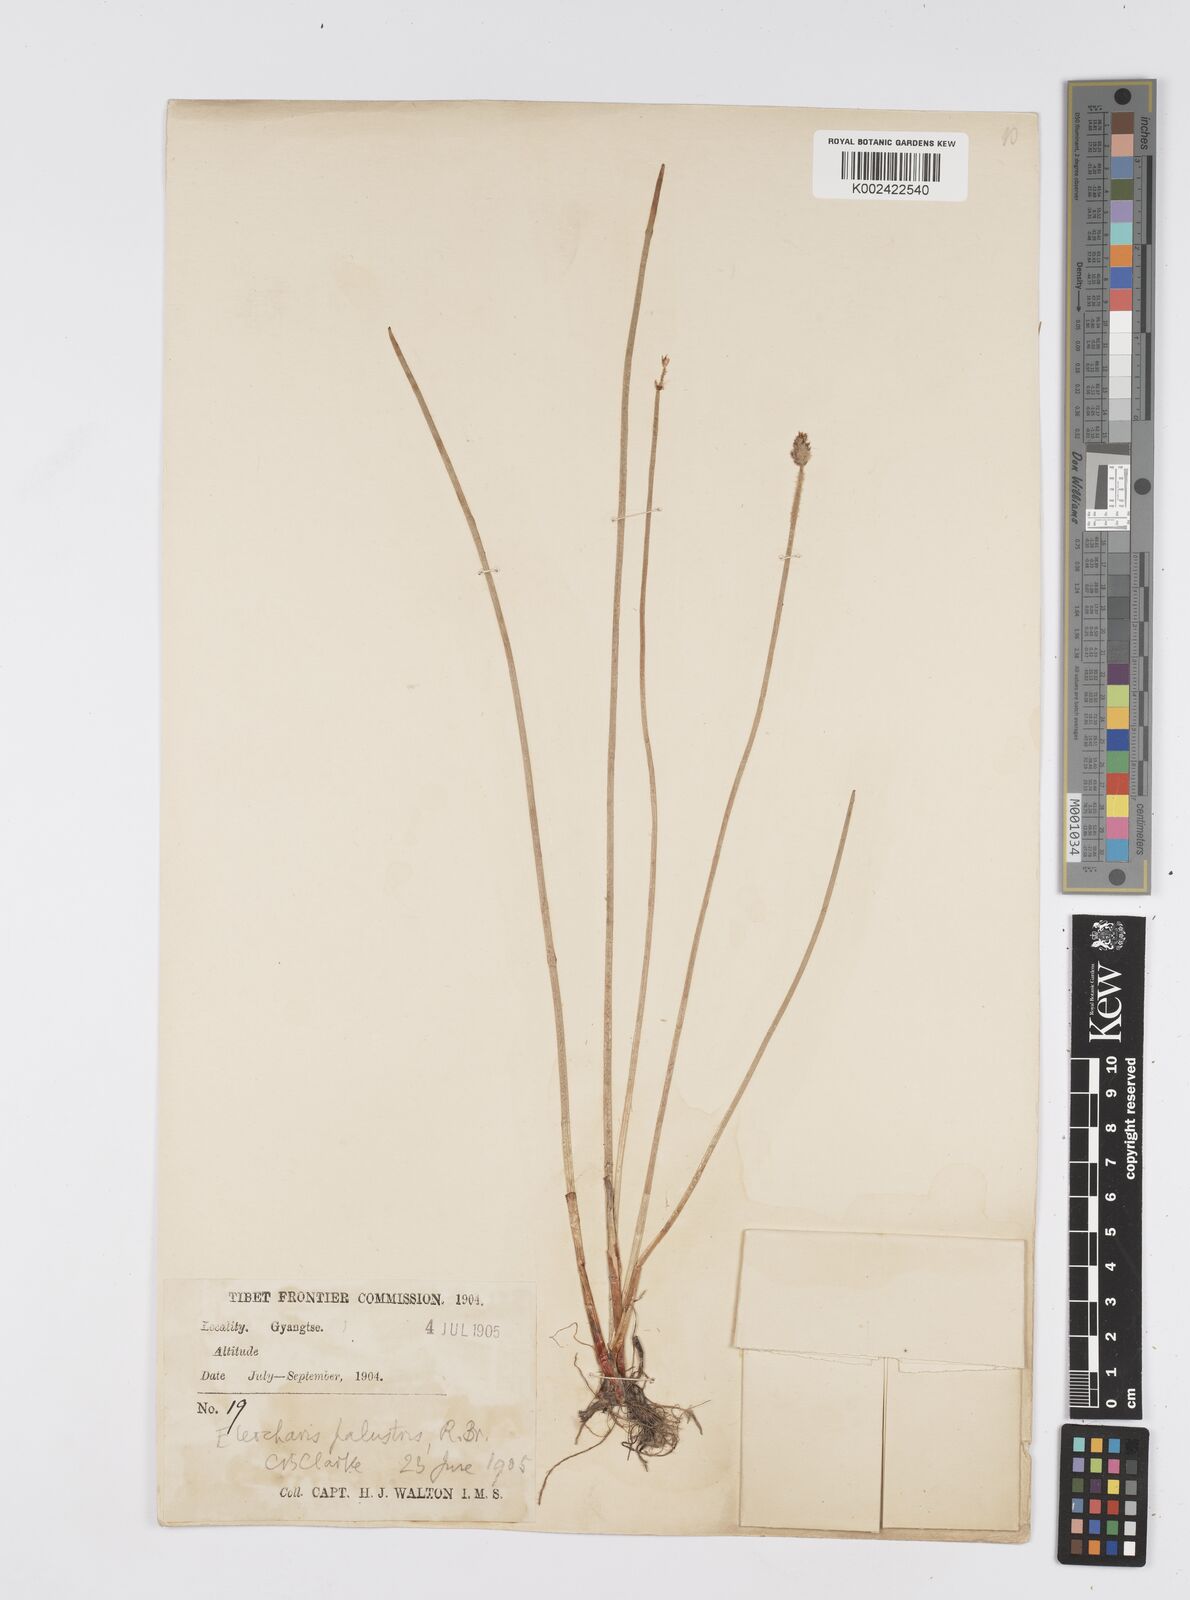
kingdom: Plantae
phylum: Tracheophyta
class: Liliopsida
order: Poales
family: Cyperaceae
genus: Eleocharis
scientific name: Eleocharis palustris
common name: Common spike-rush
